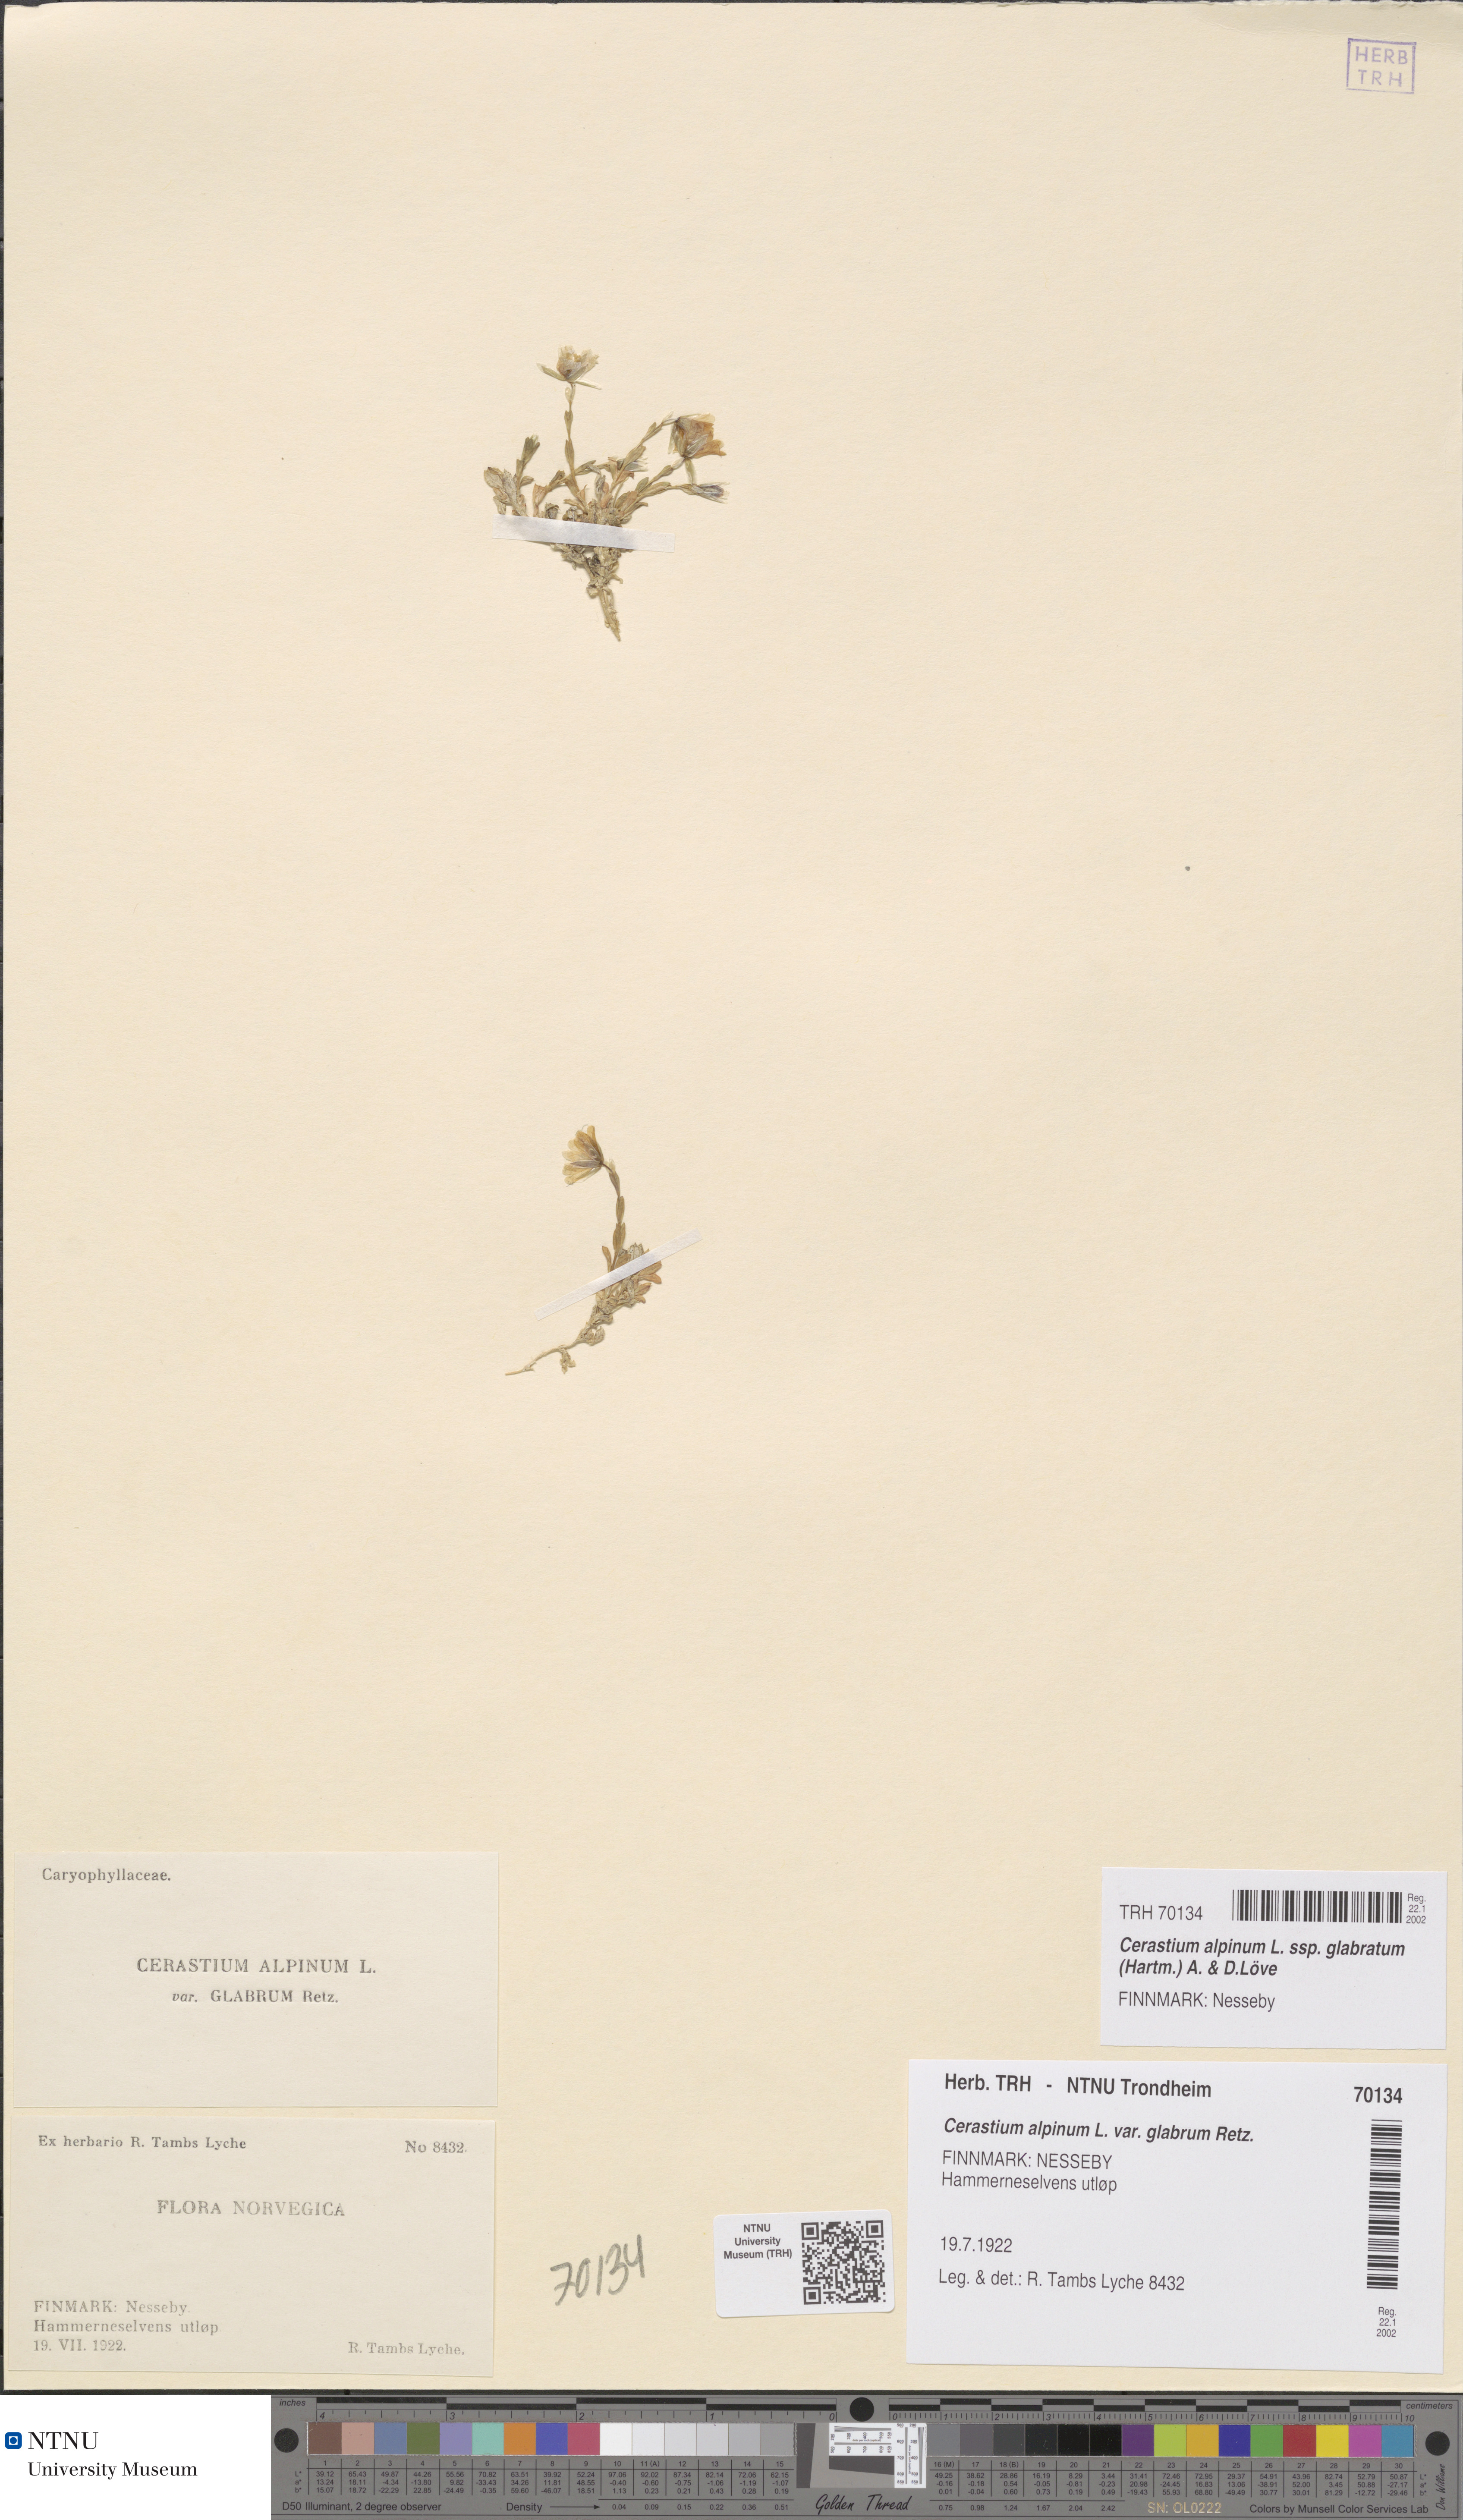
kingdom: Plantae
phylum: Tracheophyta
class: Magnoliopsida
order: Caryophyllales
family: Caryophyllaceae
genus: Cerastium
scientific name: Cerastium alpinum
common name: Alpine mouse-ear
